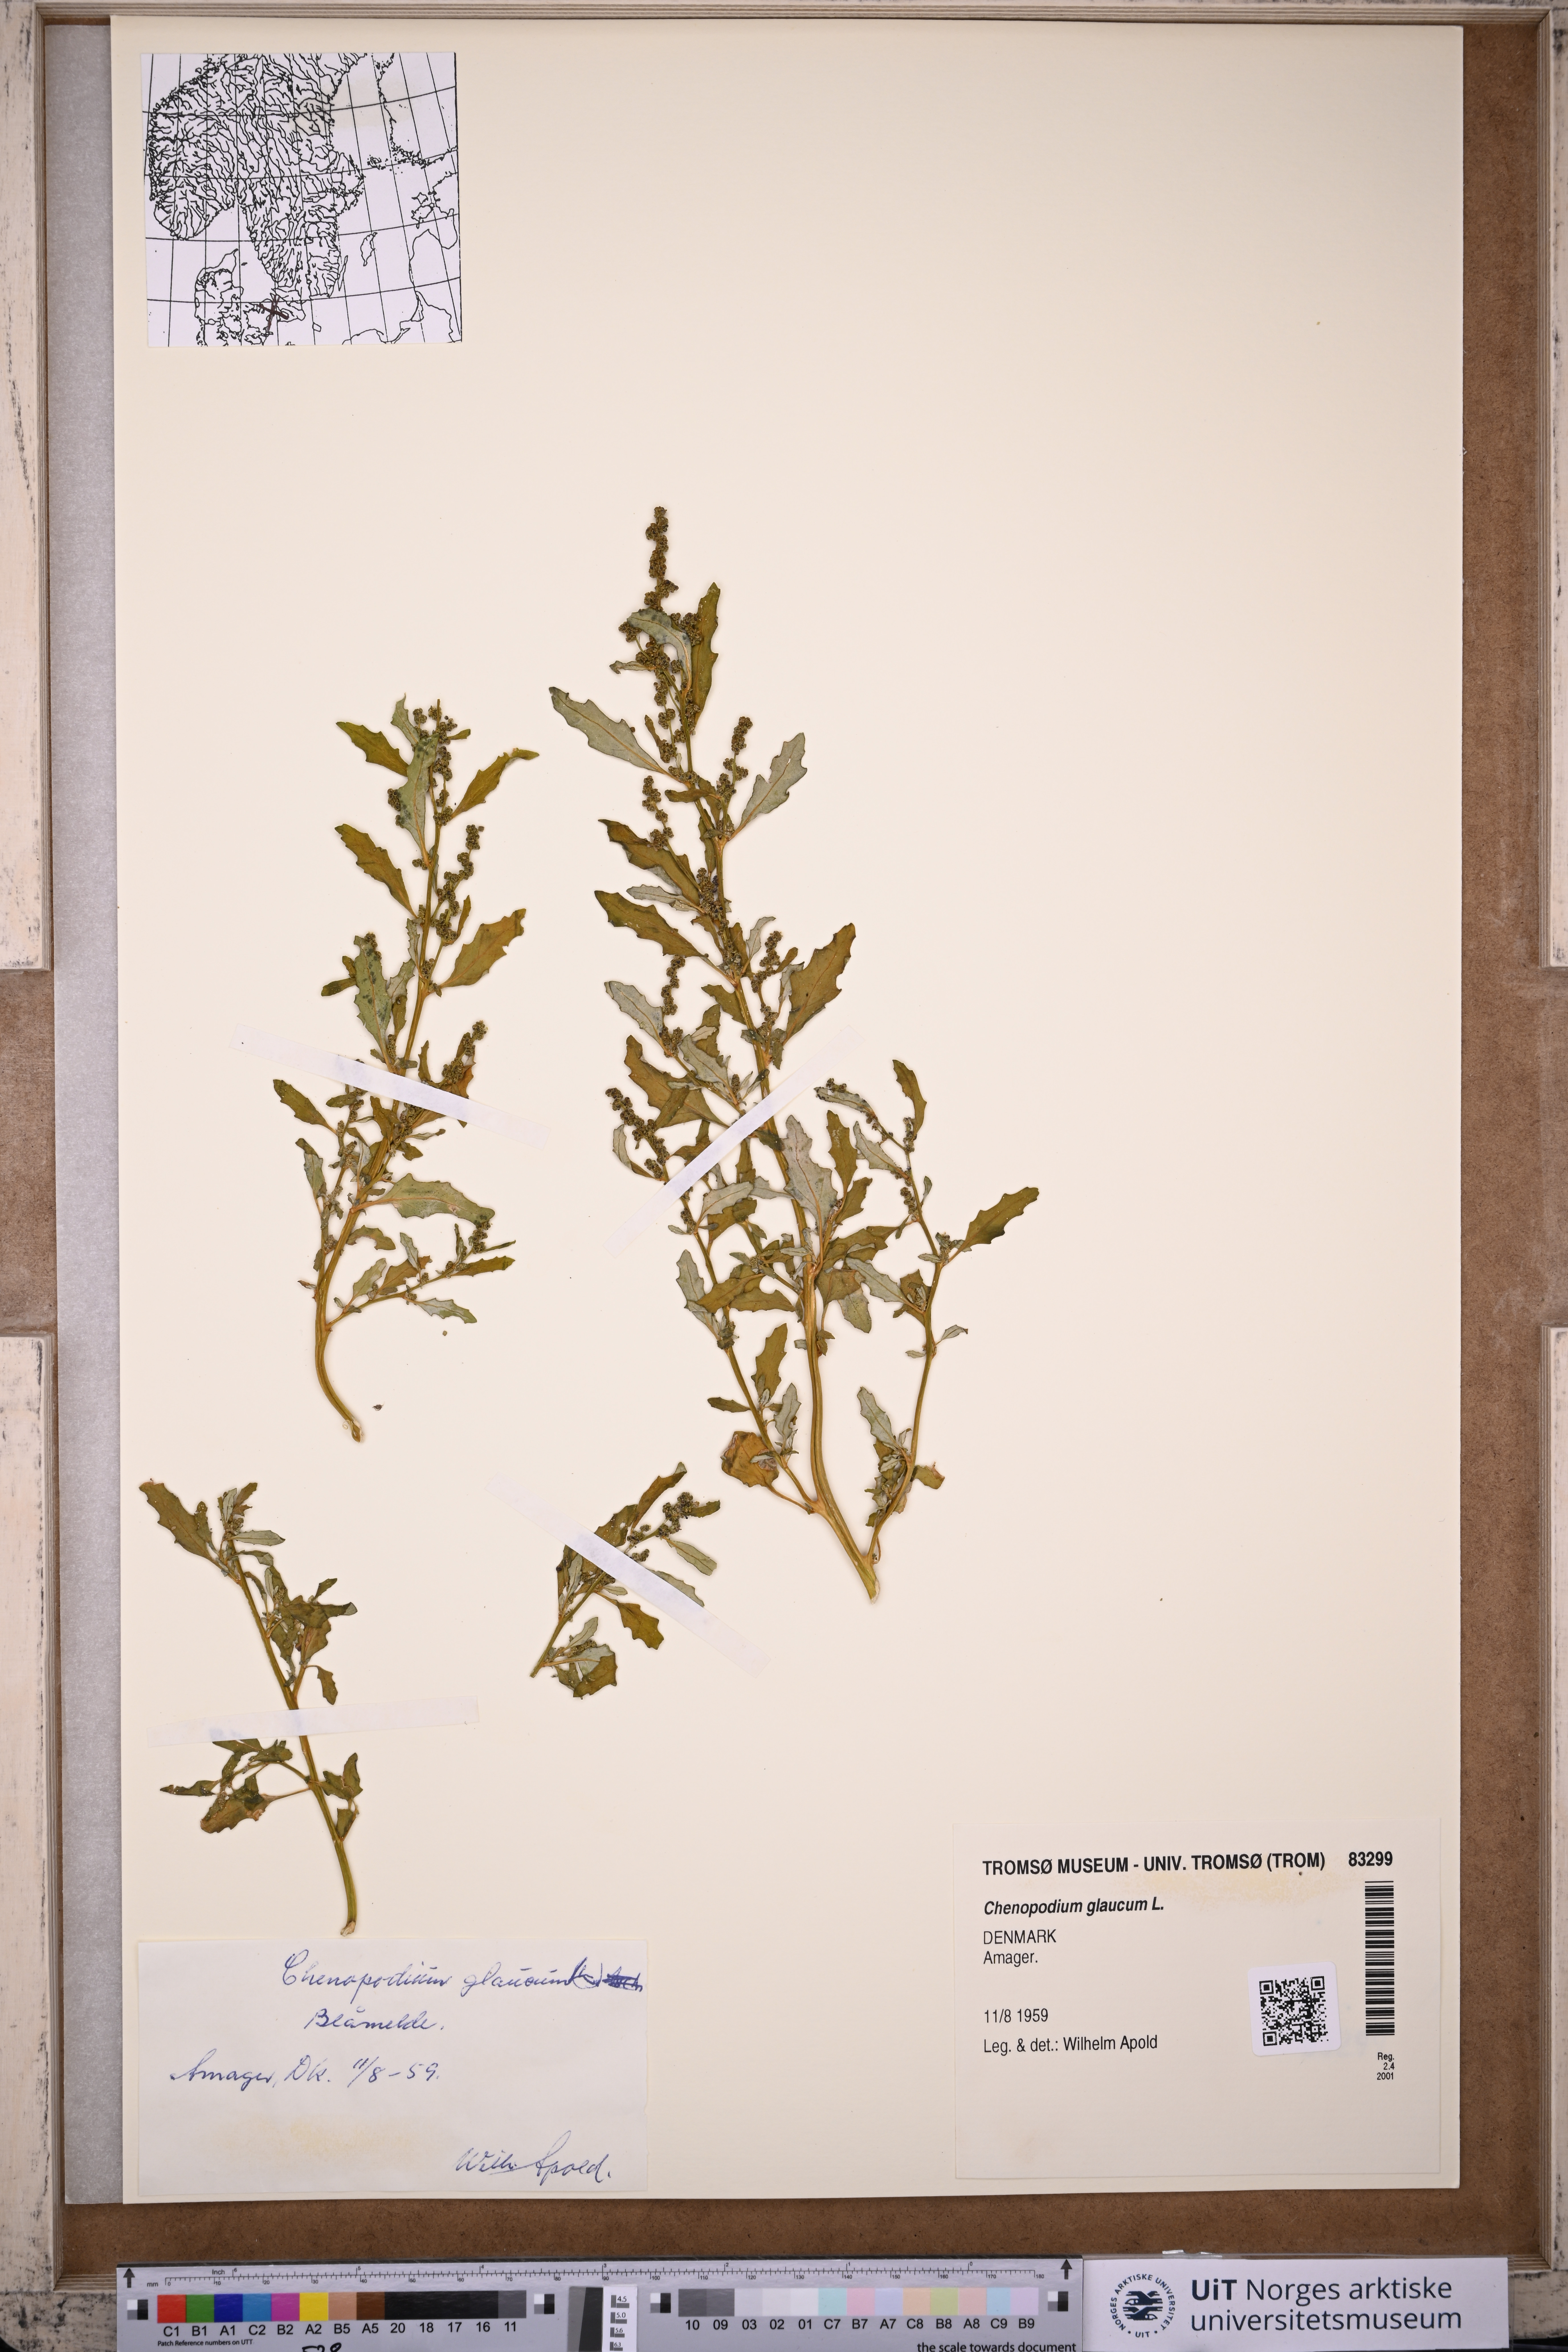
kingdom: Plantae
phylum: Tracheophyta
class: Magnoliopsida
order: Caryophyllales
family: Amaranthaceae
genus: Oxybasis
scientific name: Oxybasis glauca
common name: Glaucous goosefoot
